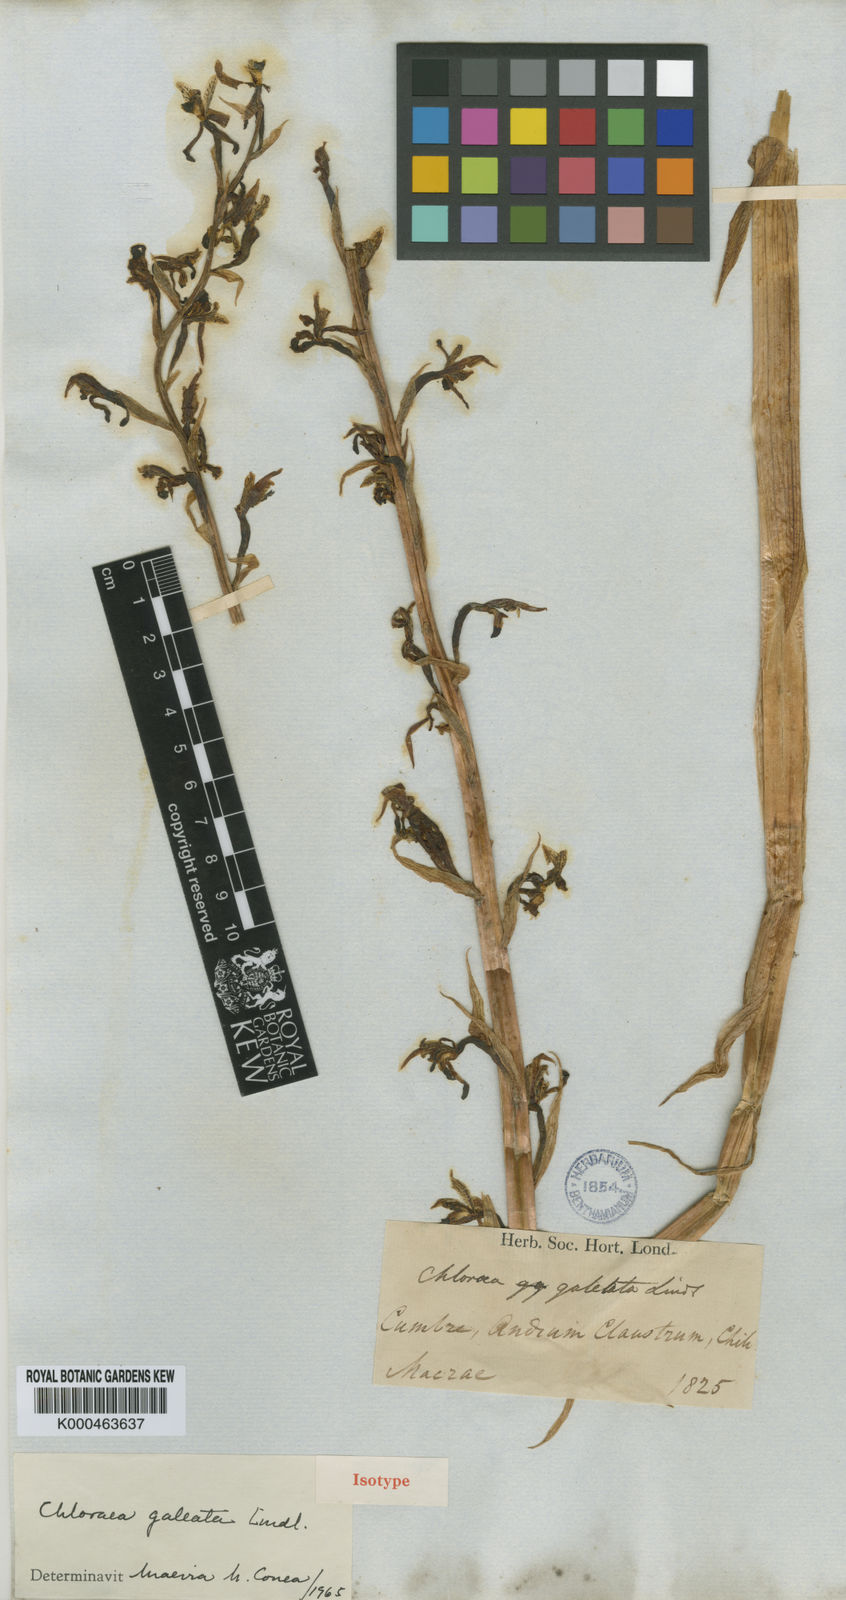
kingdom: Plantae
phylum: Tracheophyta
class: Liliopsida
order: Asparagales
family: Orchidaceae
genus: Chloraea
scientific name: Chloraea galeata
